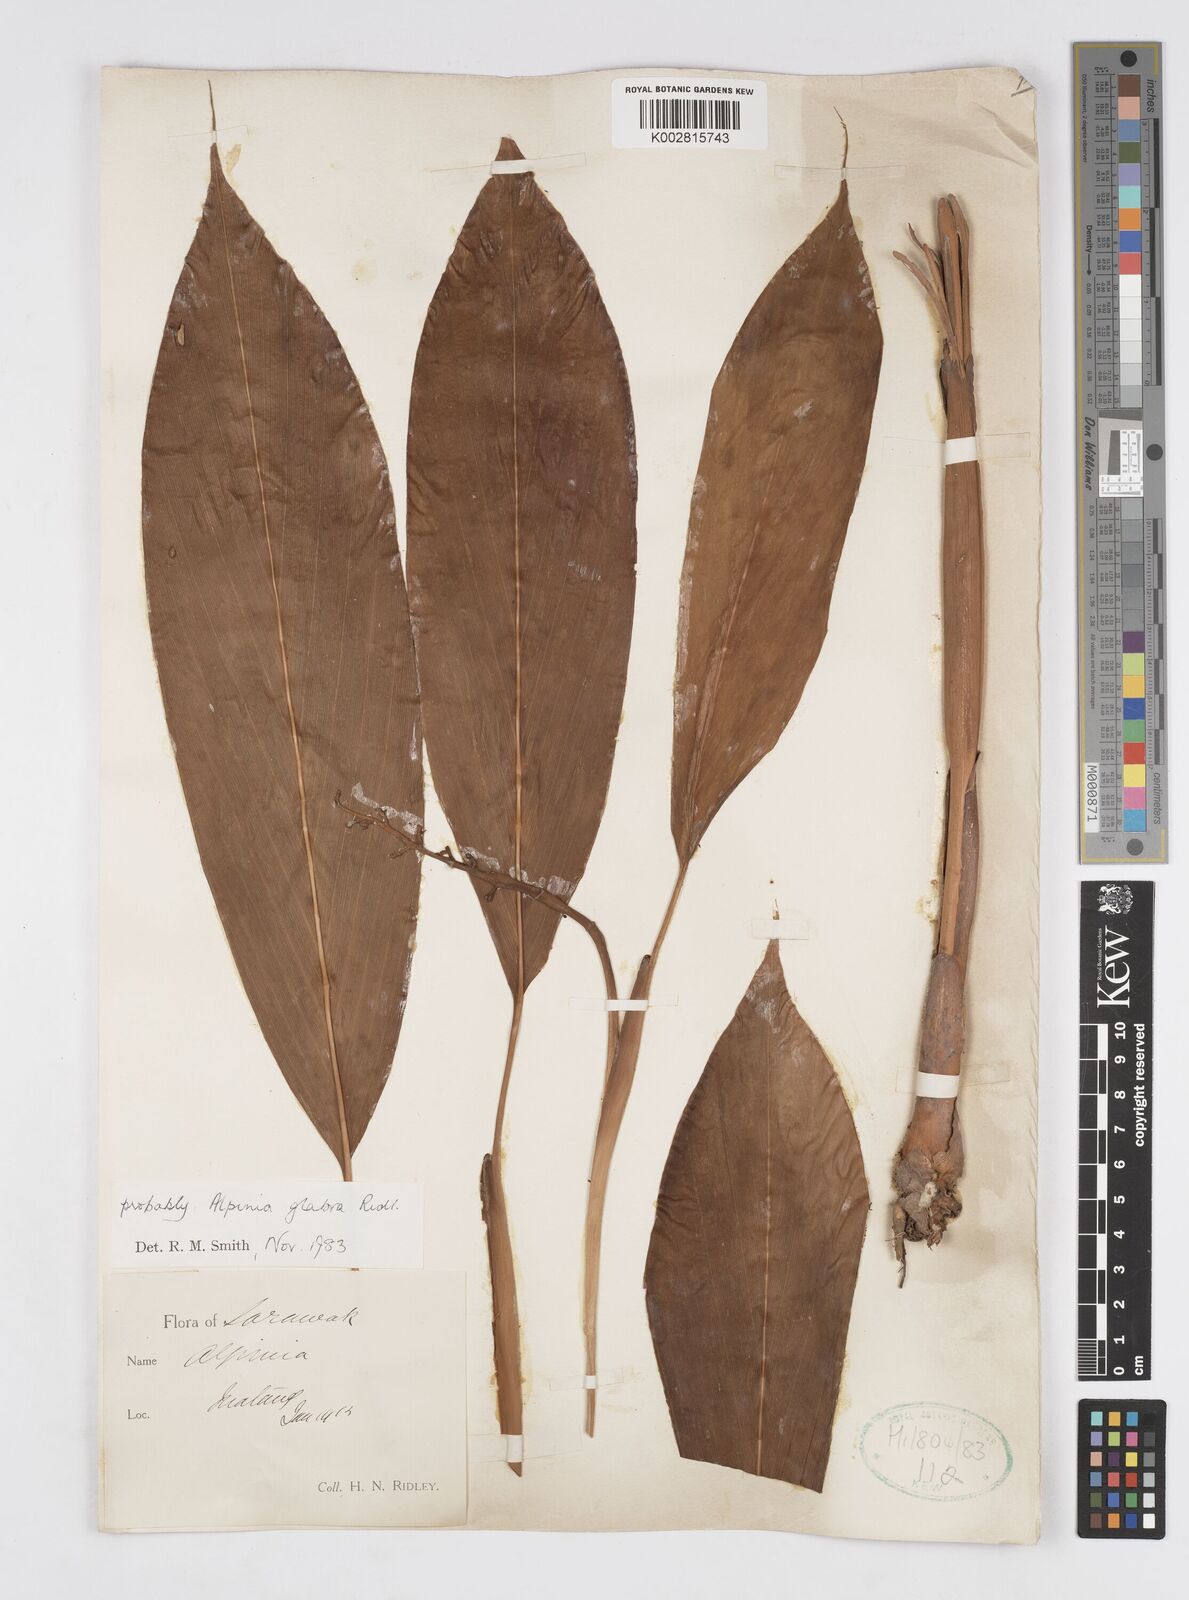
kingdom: Plantae
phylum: Tracheophyta
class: Liliopsida
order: Zingiberales
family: Zingiberaceae
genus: Alpinia
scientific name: Alpinia glabra
